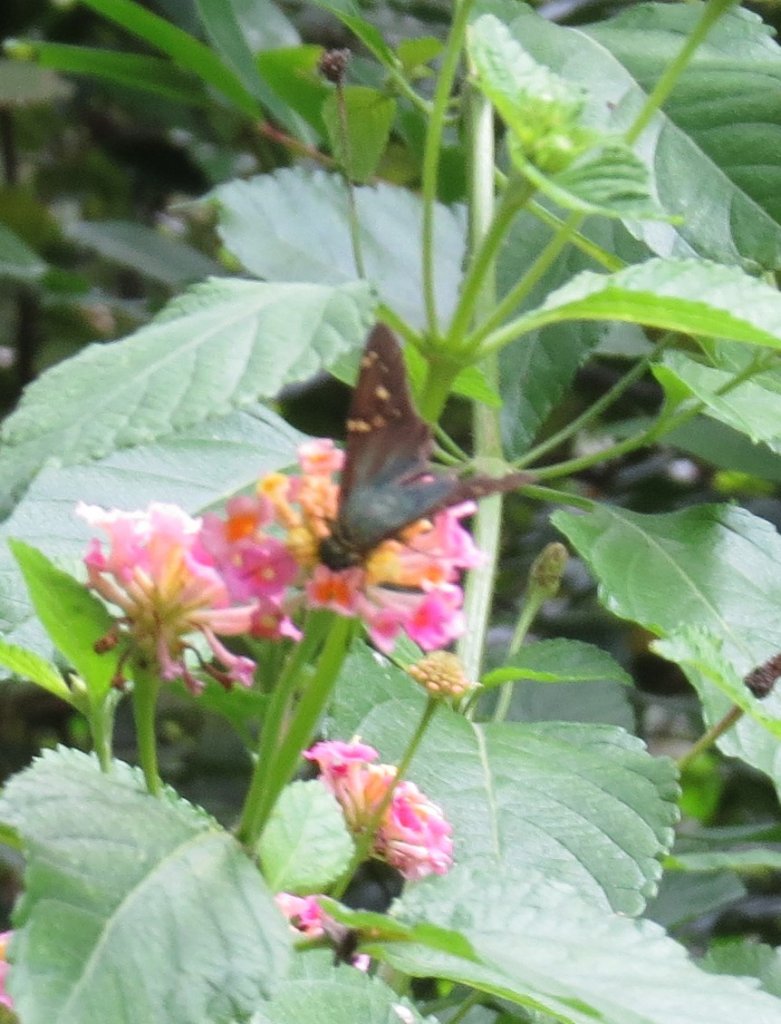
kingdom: Animalia
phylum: Arthropoda
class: Insecta
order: Lepidoptera
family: Hesperiidae
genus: Urbanus
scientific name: Urbanus proteus
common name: Long-tailed Skipper
